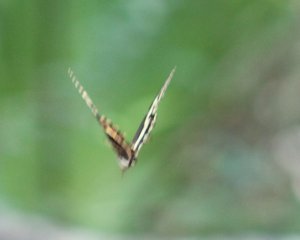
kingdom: Animalia
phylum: Arthropoda
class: Insecta
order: Lepidoptera
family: Papilionidae
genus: Pterourus
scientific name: Pterourus palamedes
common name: Palamedes Swallowtail
